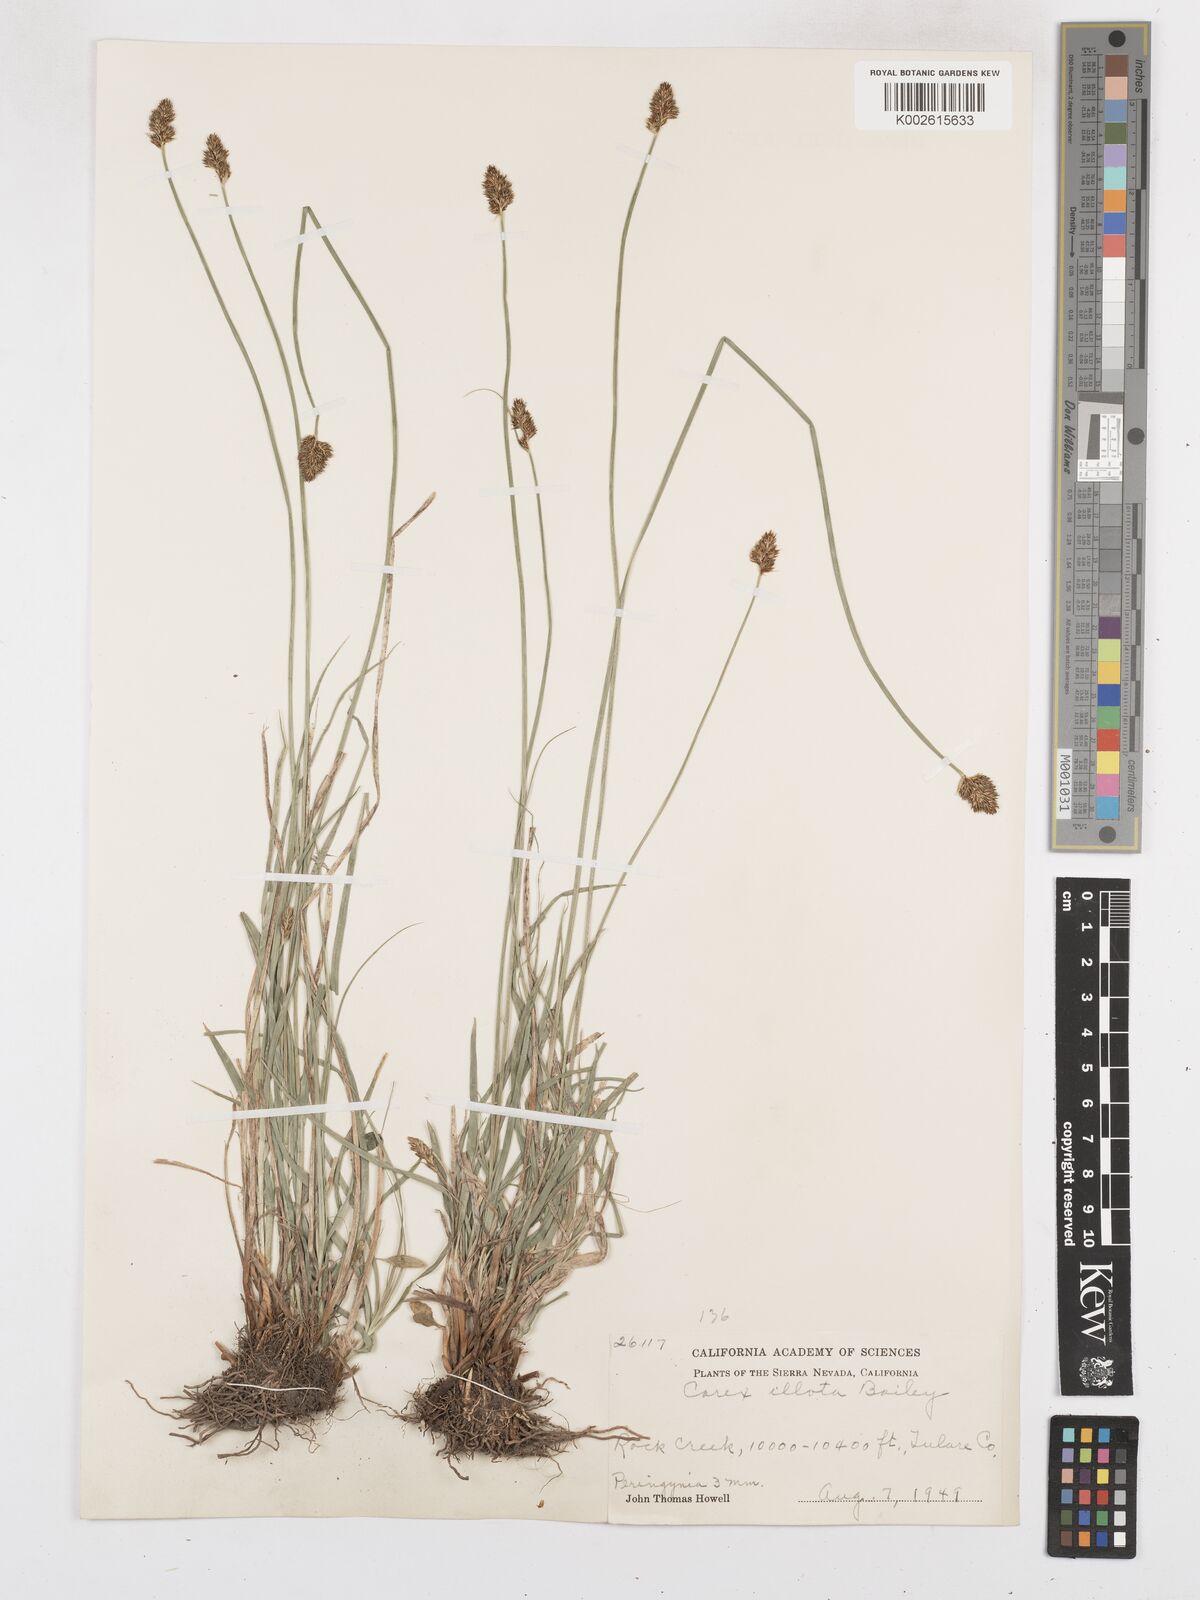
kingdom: Plantae
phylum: Tracheophyta
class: Liliopsida
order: Poales
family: Cyperaceae
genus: Carex
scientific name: Carex illota
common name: Sheep sedge
